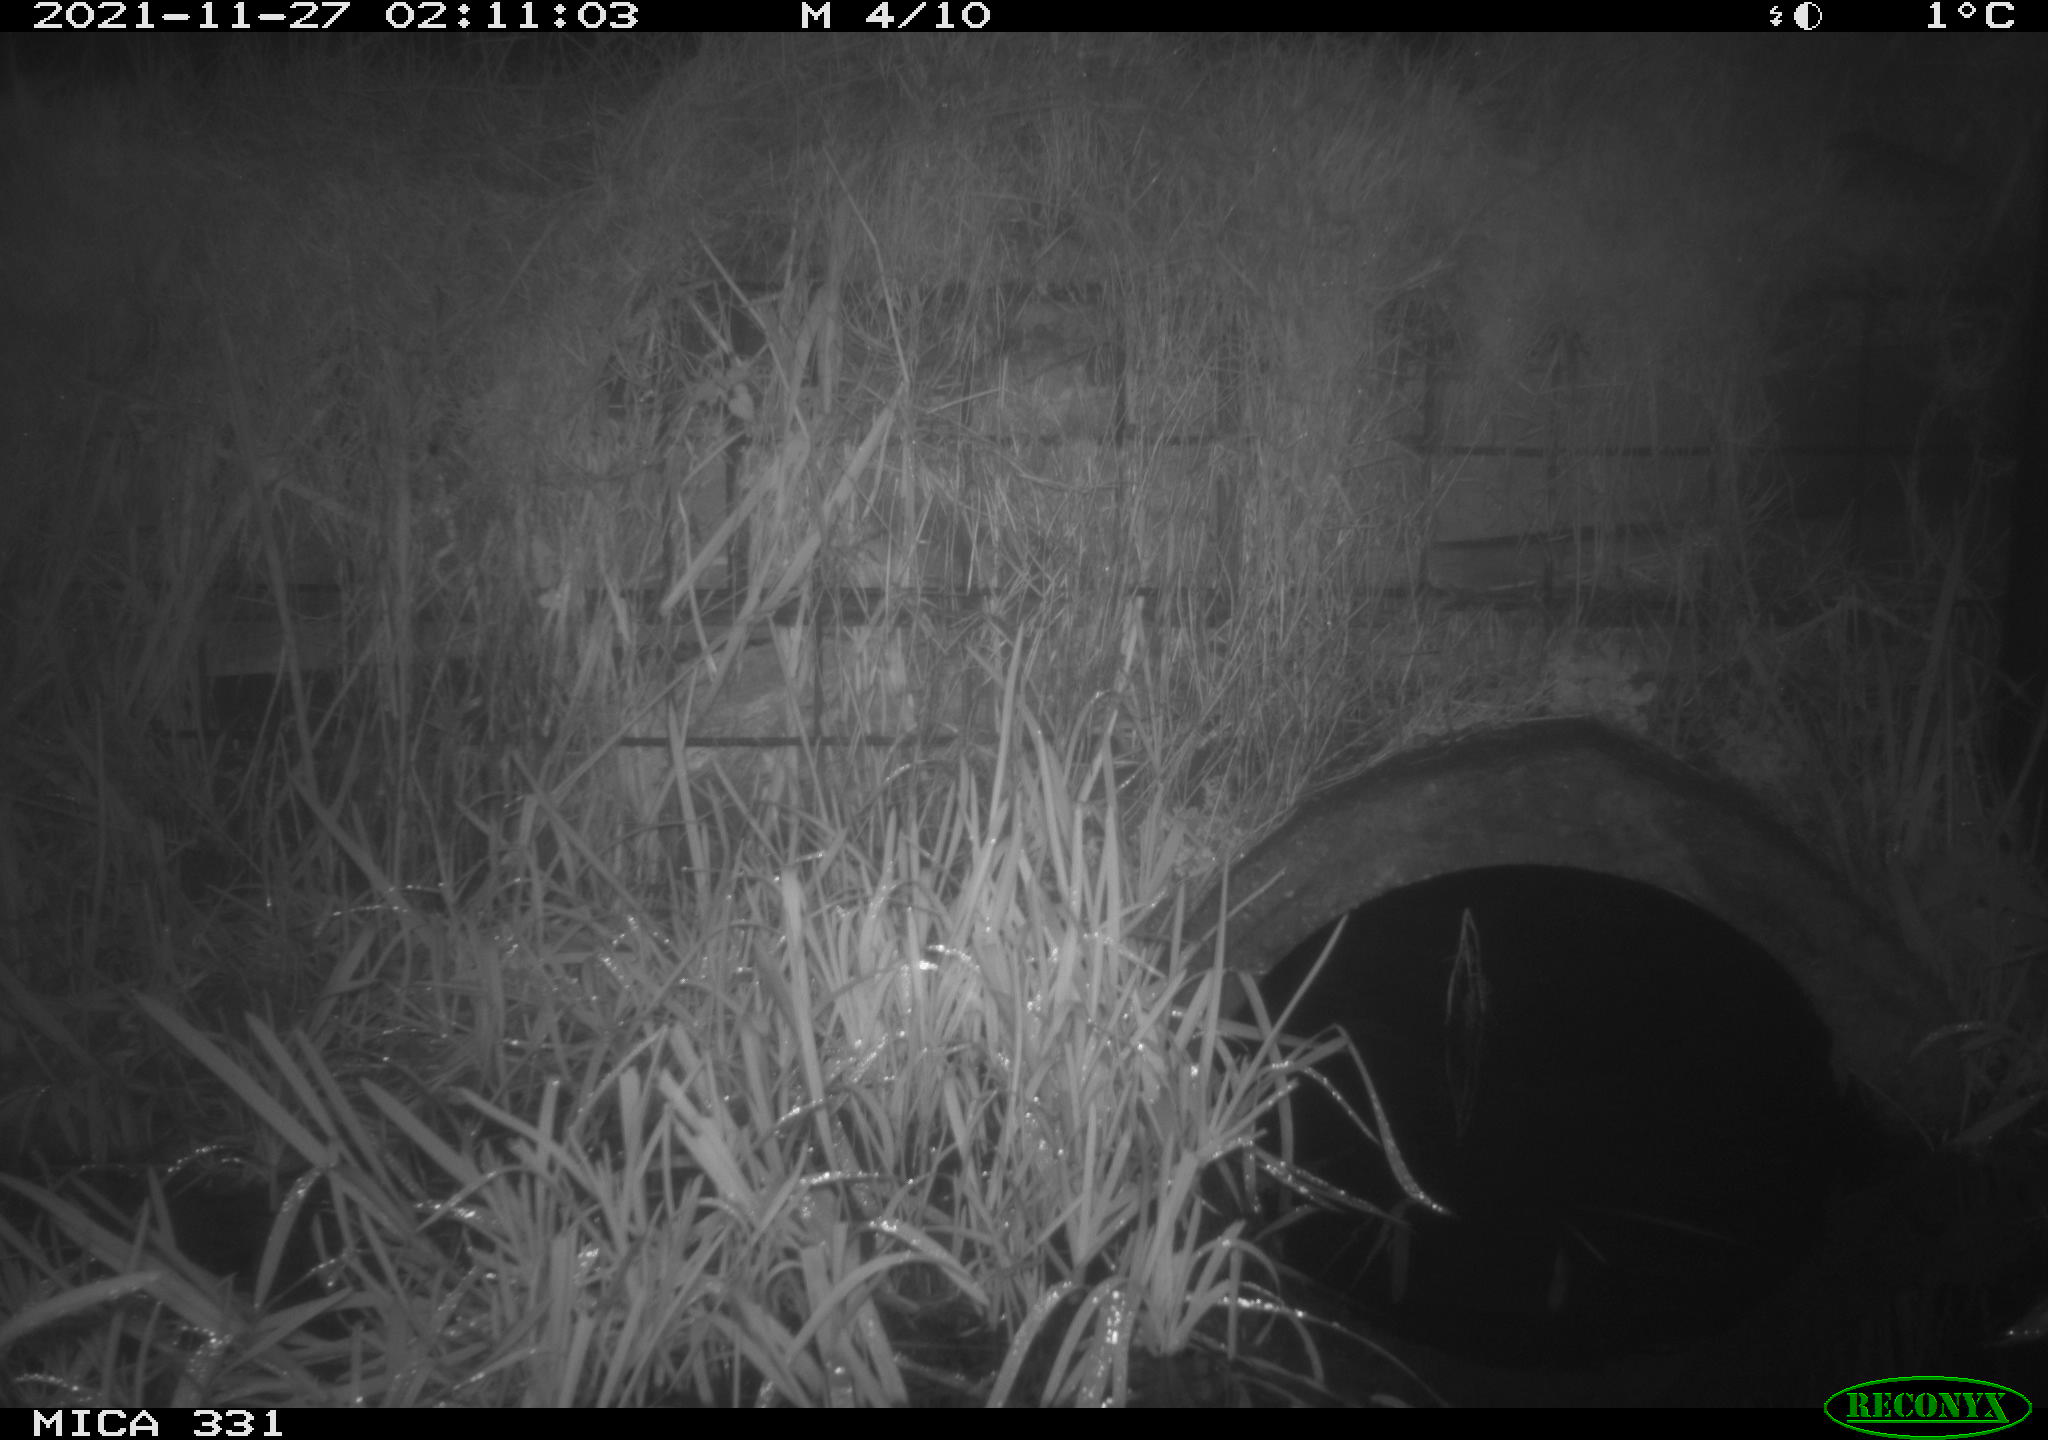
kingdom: Animalia
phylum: Chordata
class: Mammalia
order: Carnivora
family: Canidae
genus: Vulpes
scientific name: Vulpes vulpes
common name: Red fox
